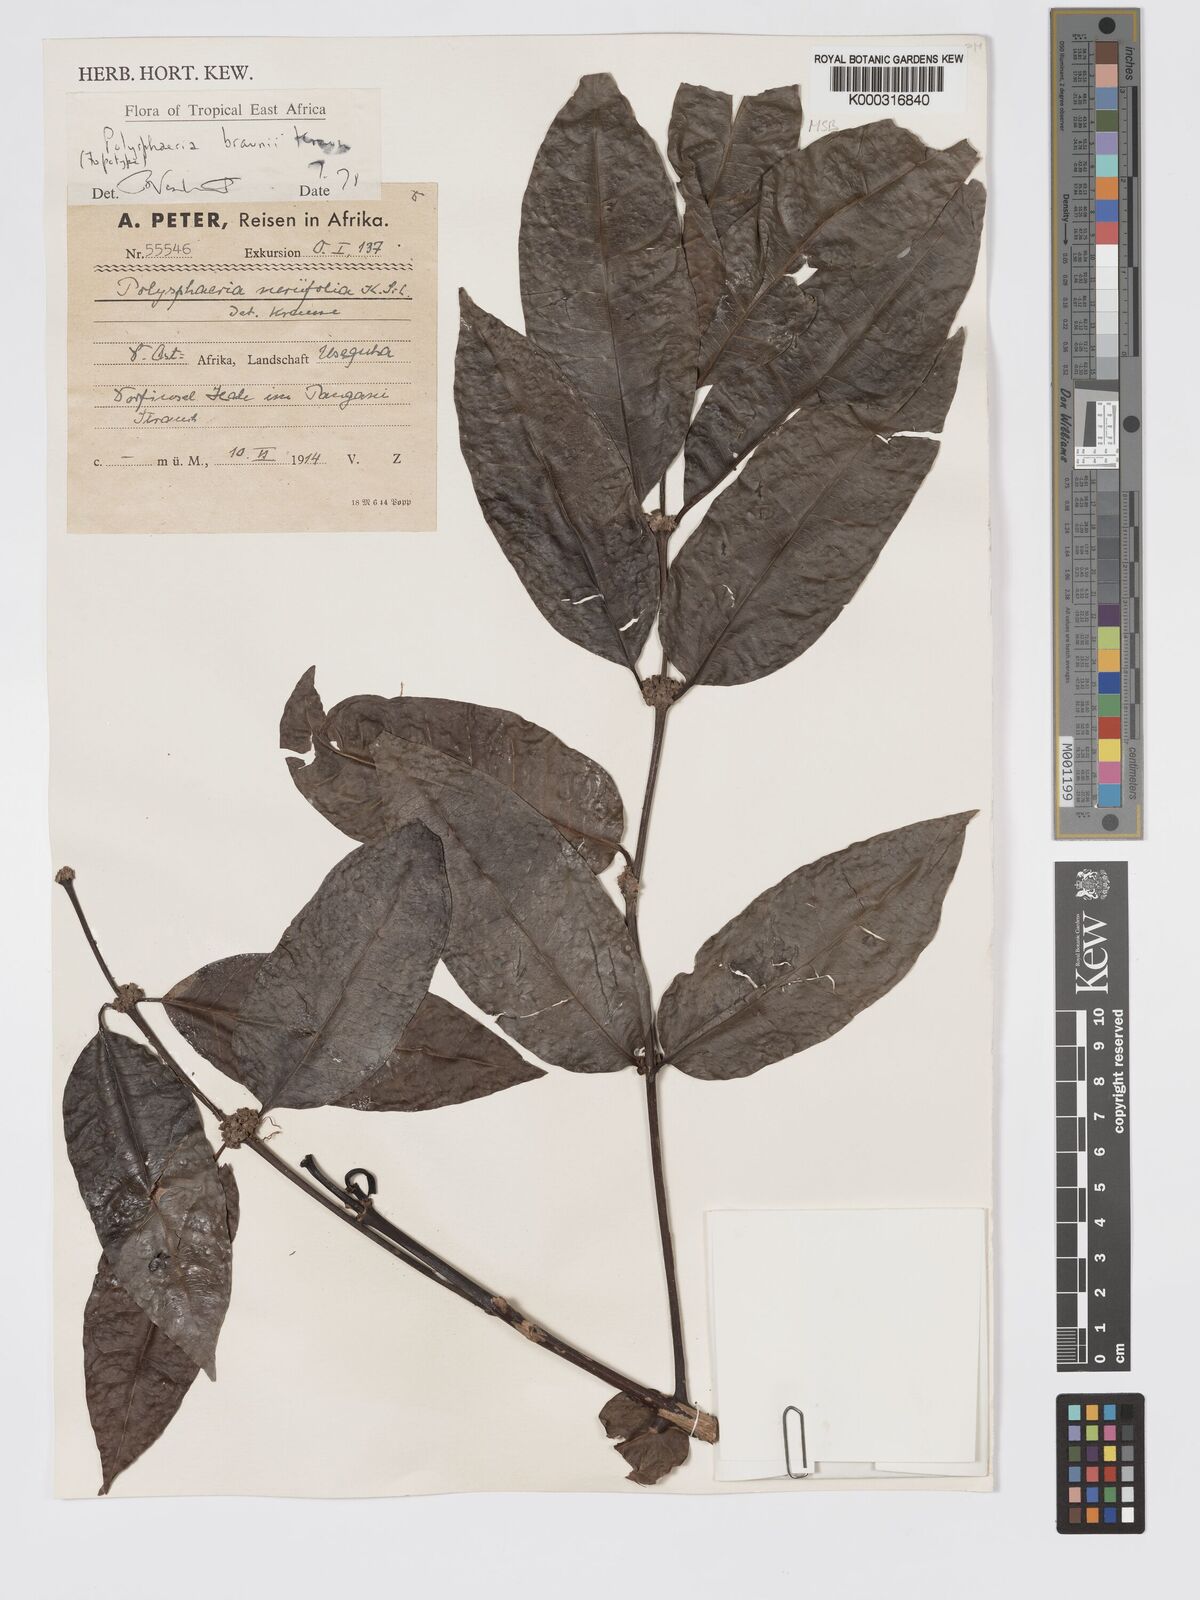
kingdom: Plantae
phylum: Tracheophyta
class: Magnoliopsida
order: Gentianales
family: Rubiaceae
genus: Polysphaeria
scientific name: Polysphaeria braunii
